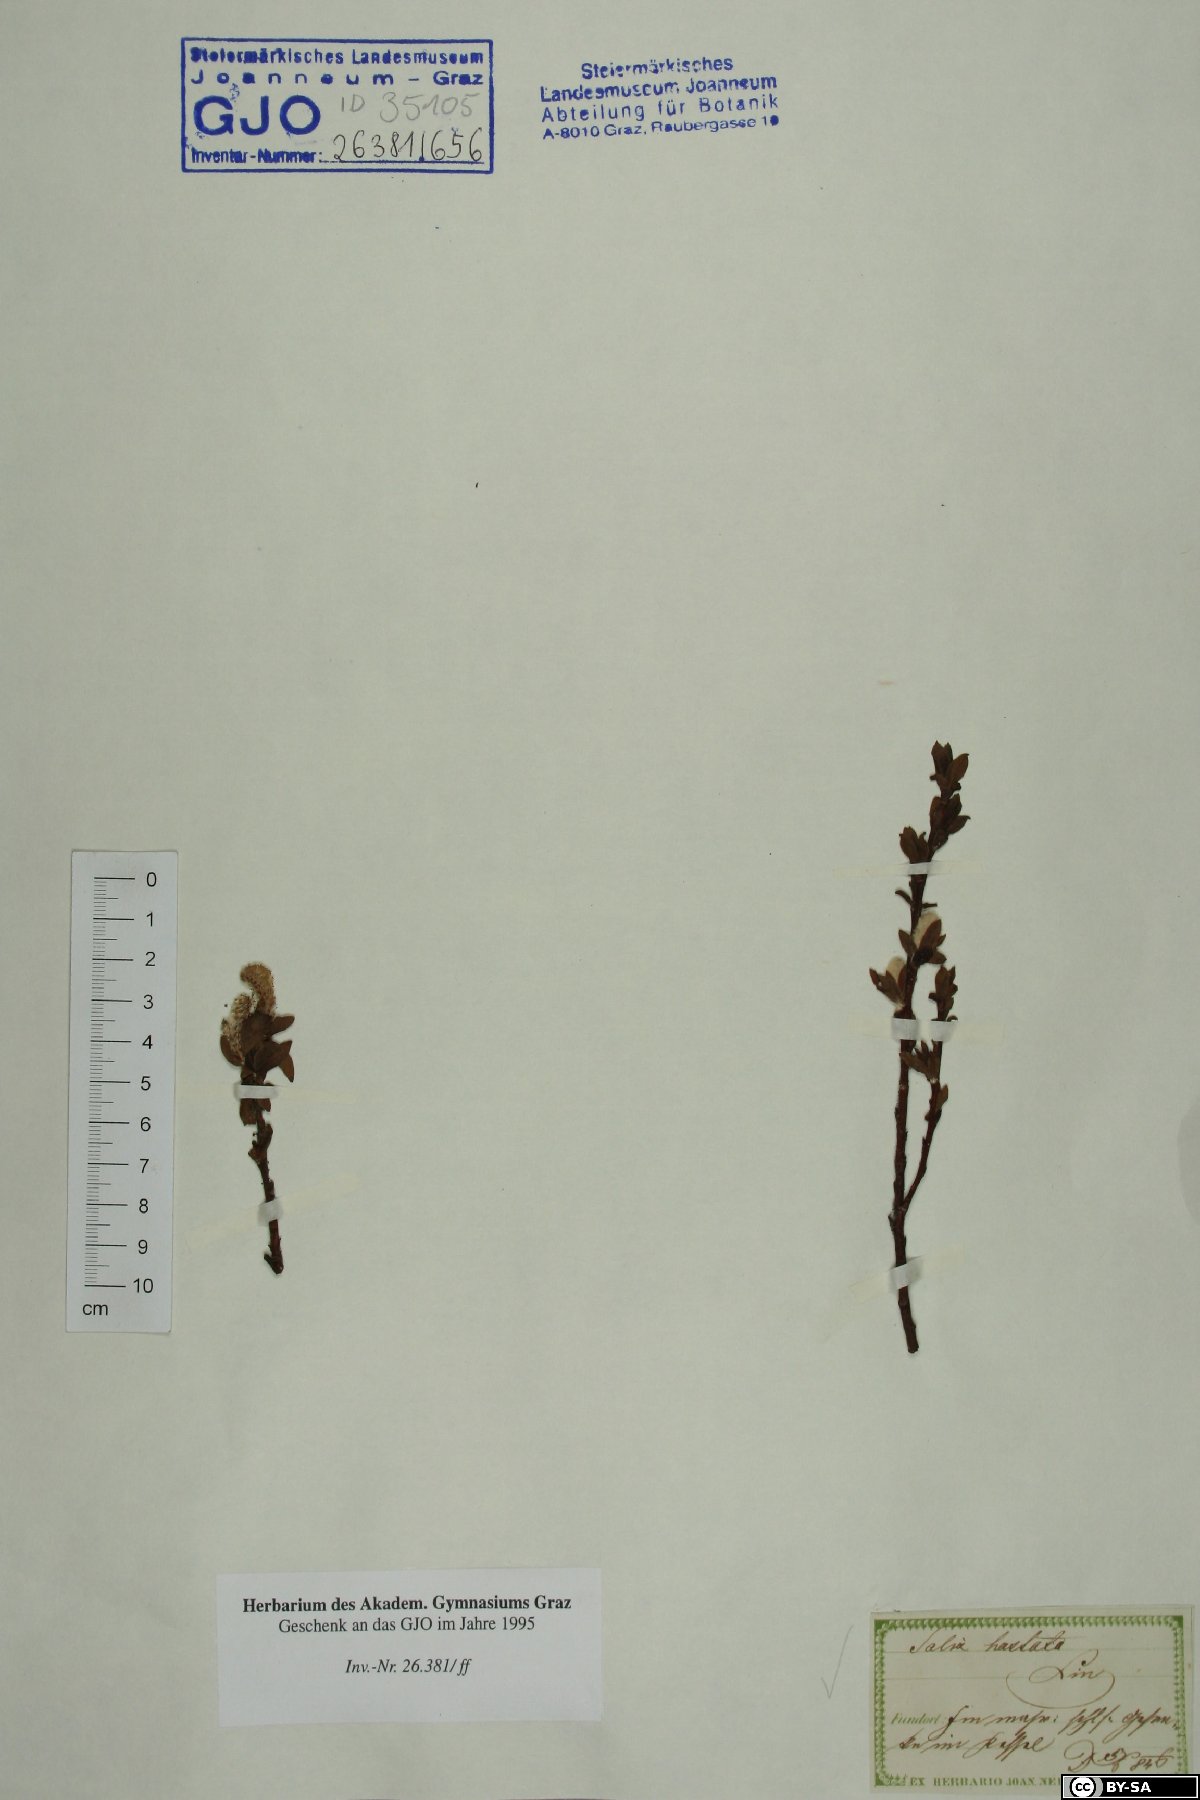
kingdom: Plantae
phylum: Tracheophyta
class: Magnoliopsida
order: Malpighiales
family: Salicaceae
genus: Salix
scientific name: Salix hastata
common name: Halberd willow
